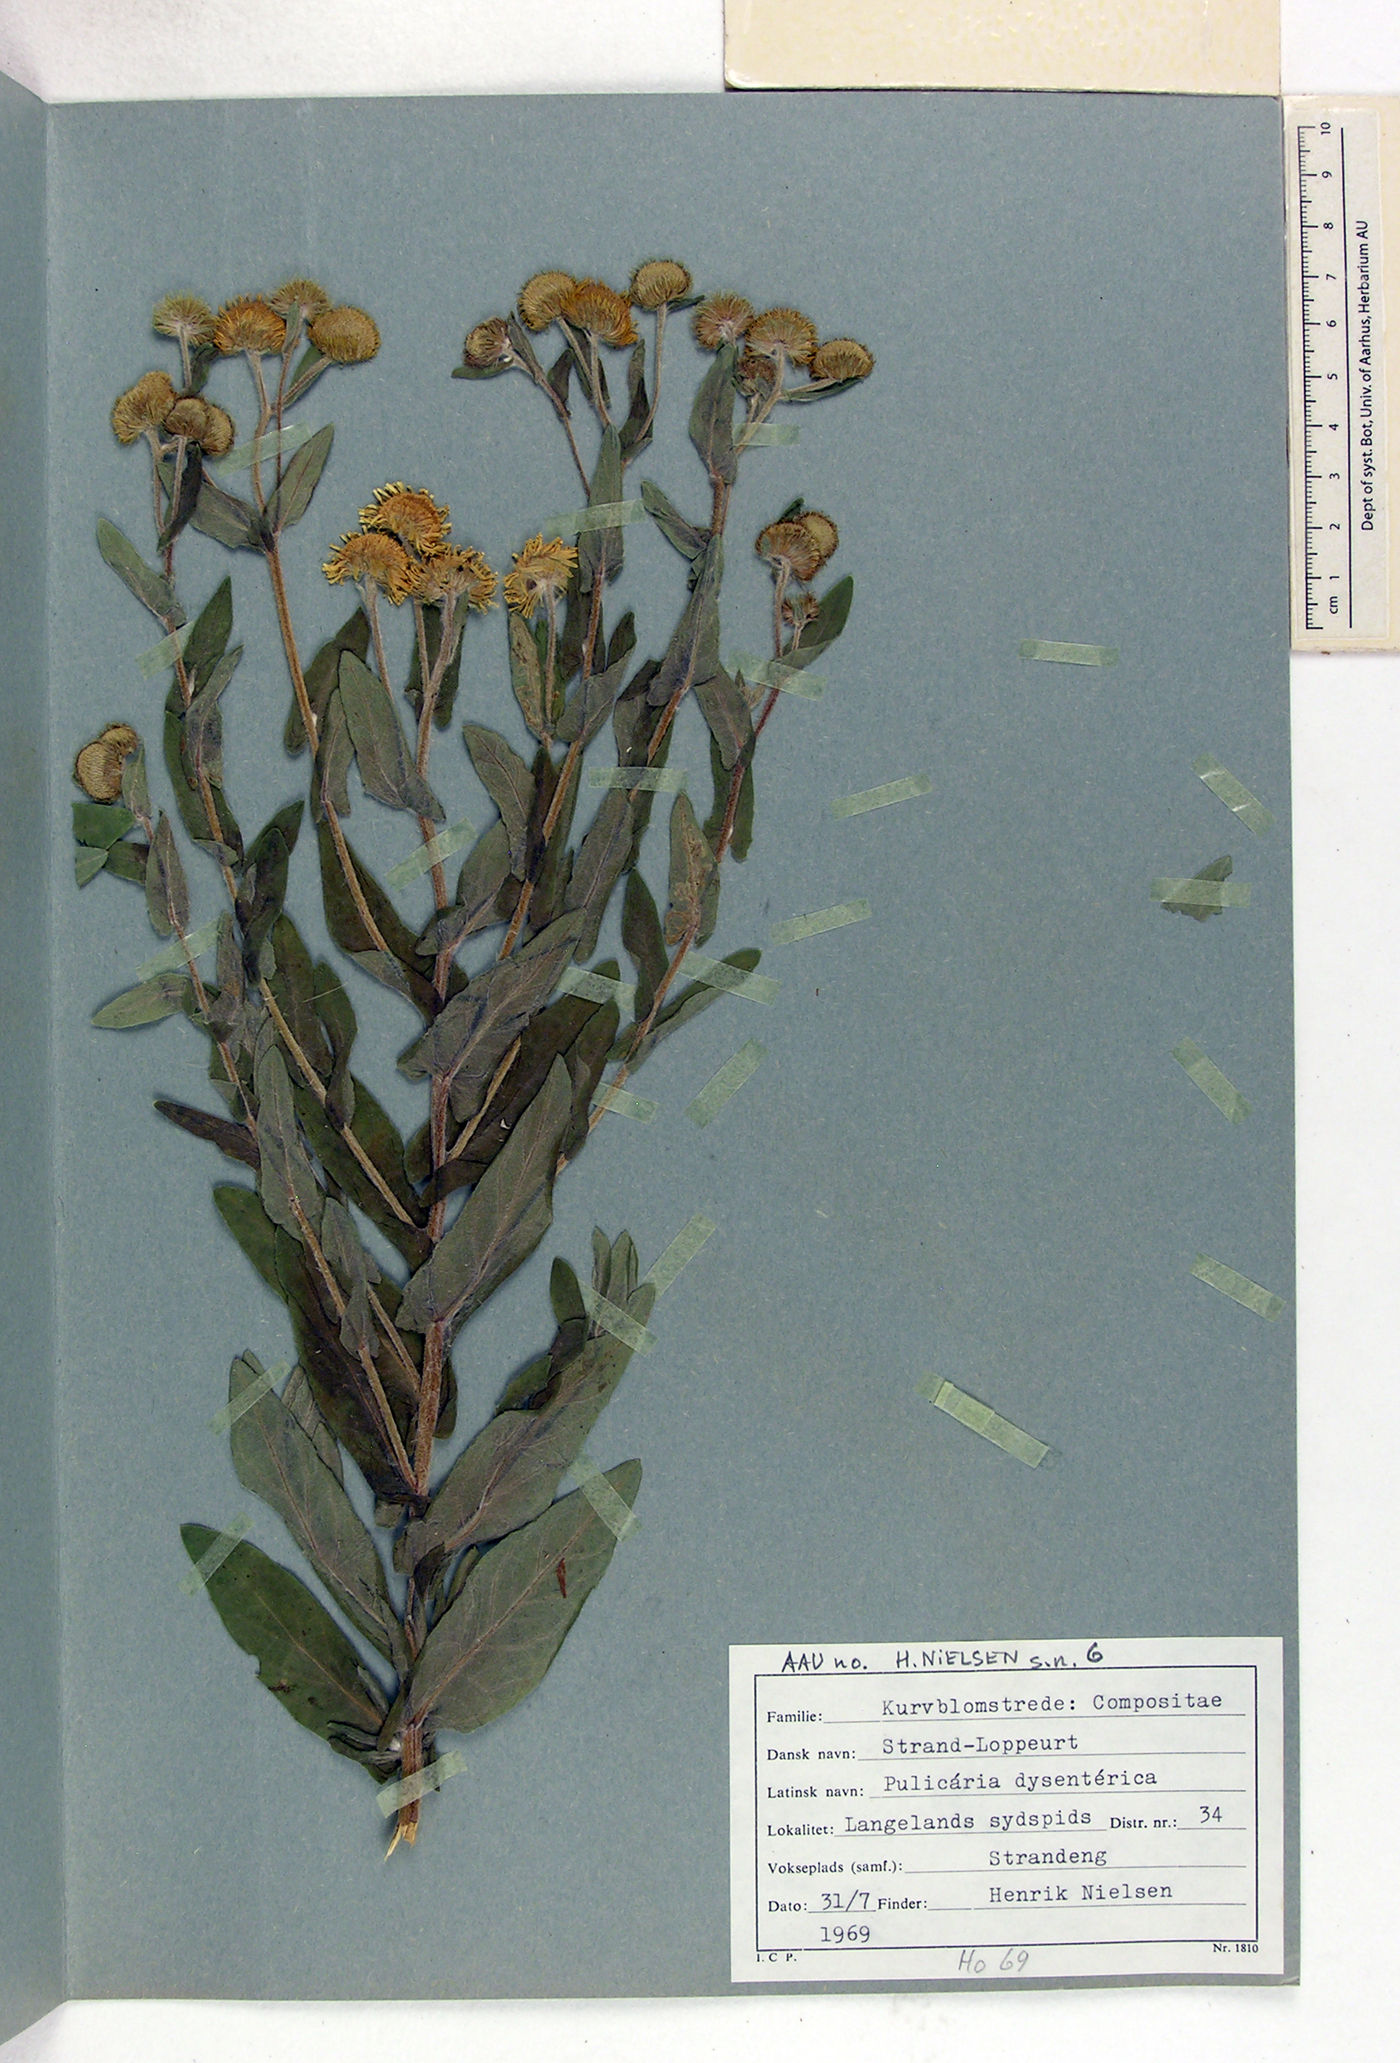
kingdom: Plantae
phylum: Tracheophyta
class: Magnoliopsida
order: Asterales
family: Asteraceae
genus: Pulicaria
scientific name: Pulicaria dysenterica
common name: Common fleabane
